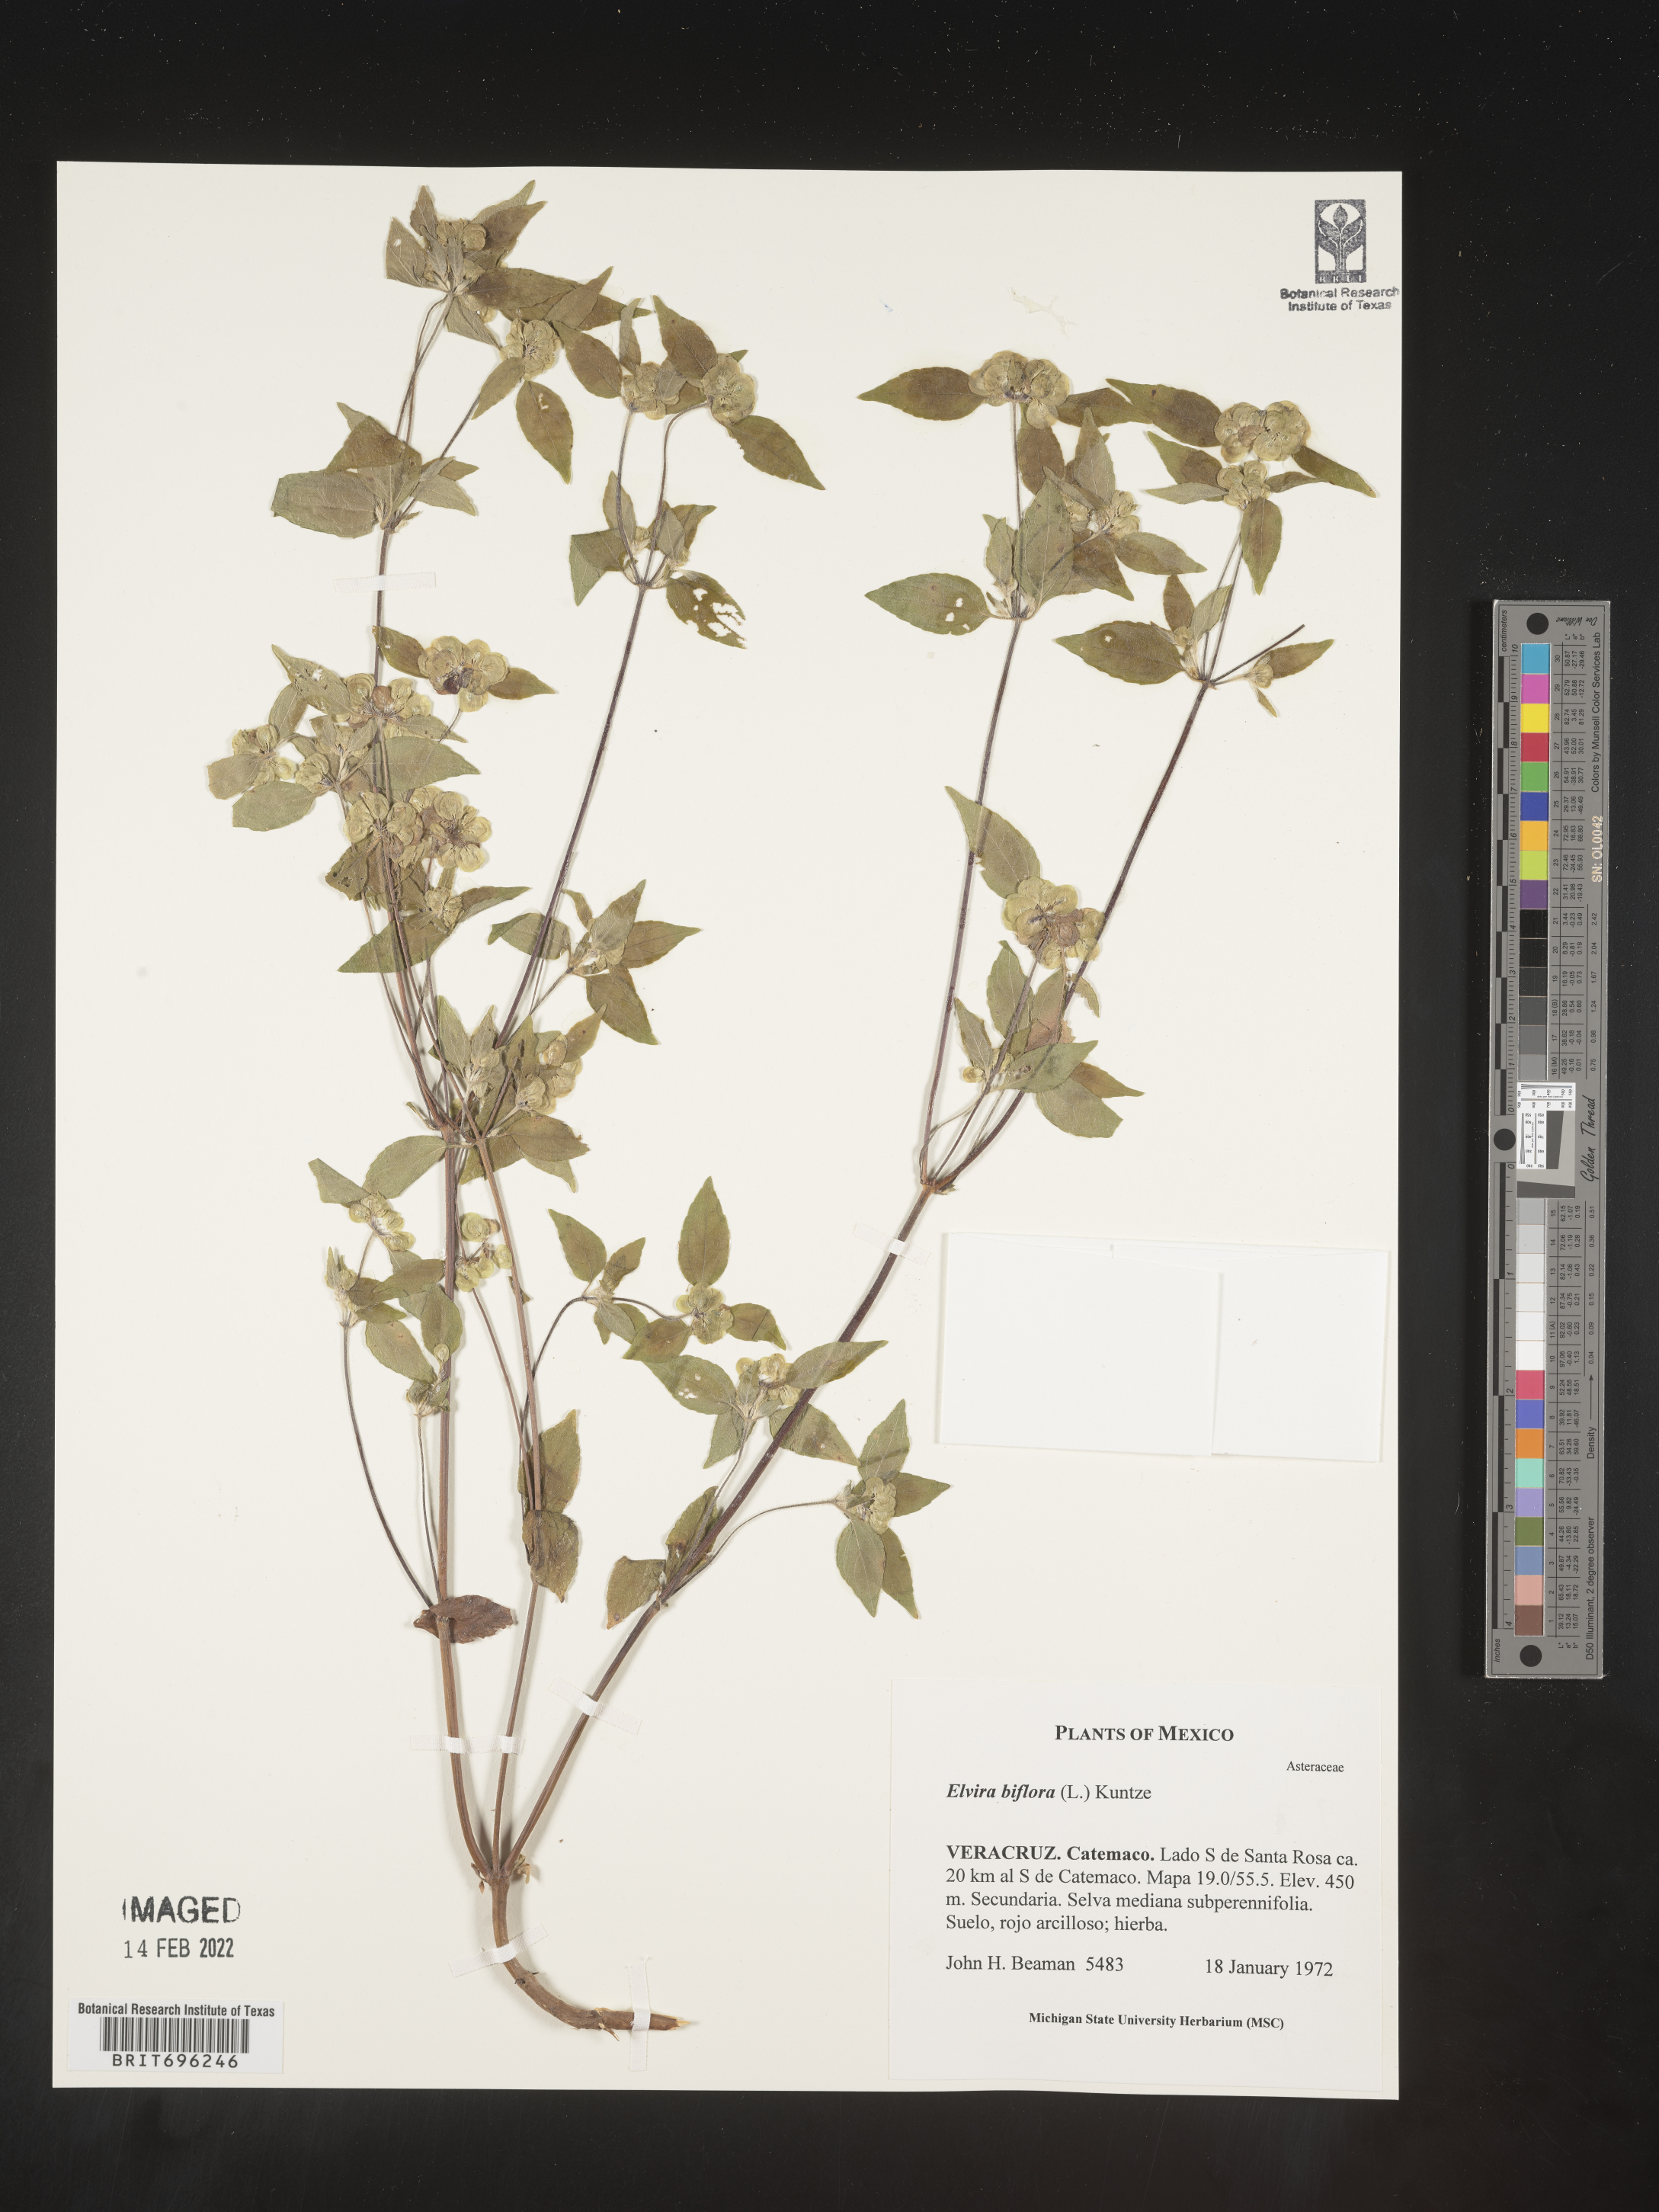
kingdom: Plantae
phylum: Tracheophyta
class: Magnoliopsida
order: Asterales
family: Asteraceae
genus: Delilia
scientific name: Delilia
